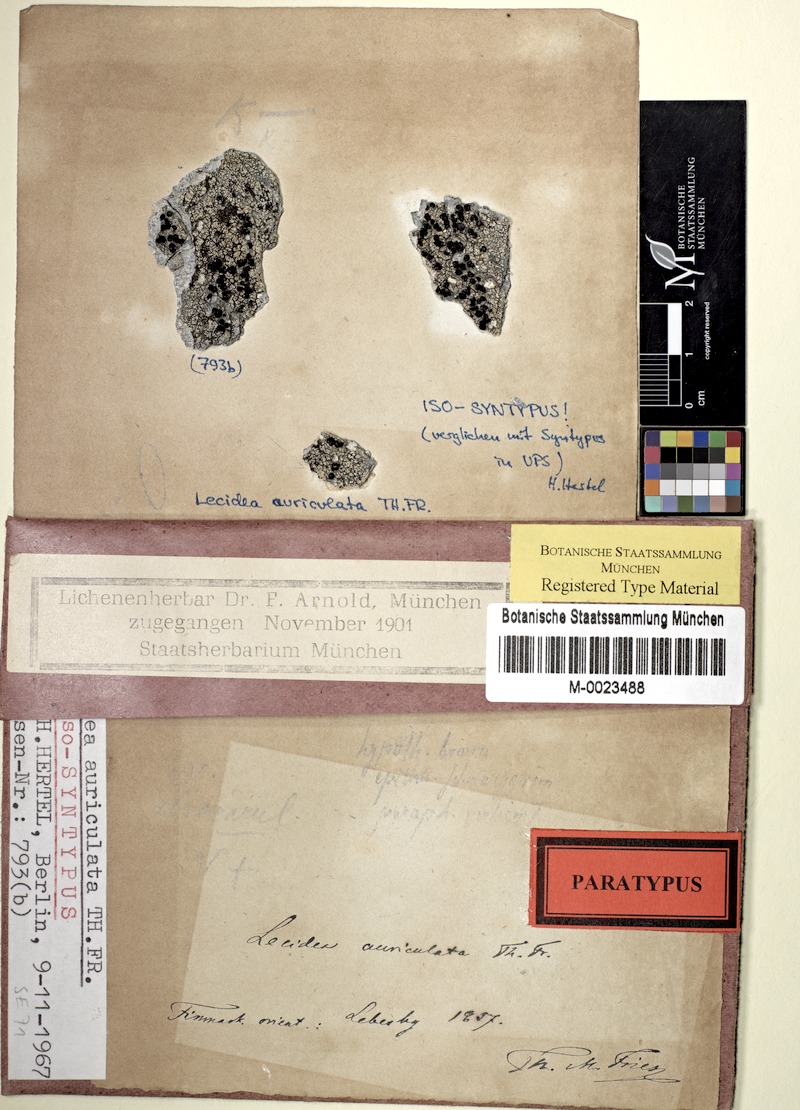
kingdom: Fungi
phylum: Ascomycota
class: Lecanoromycetes
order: Lecideales
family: Lecideaceae
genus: Lecidea
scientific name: Lecidea auriculata
